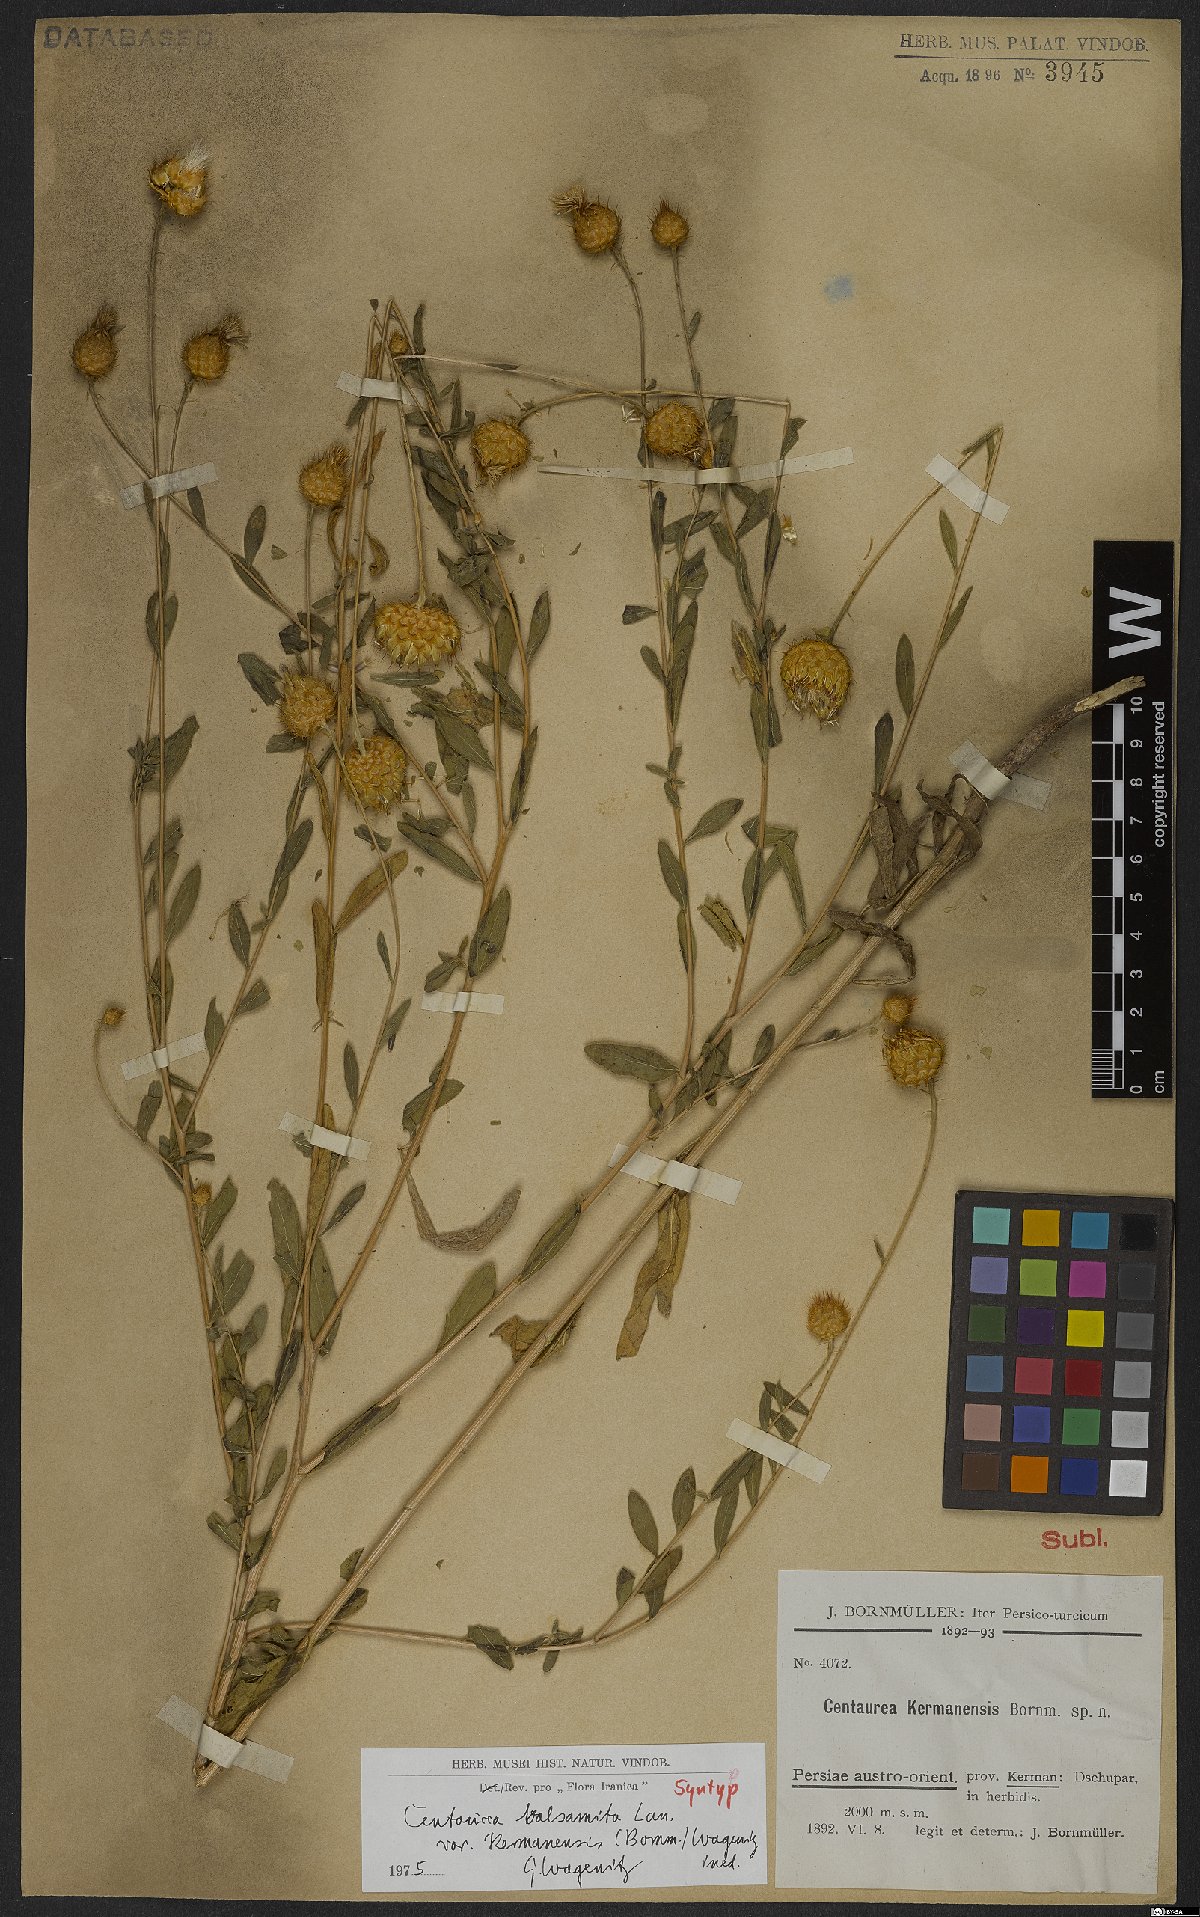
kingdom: Plantae
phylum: Tracheophyta
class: Magnoliopsida
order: Asterales
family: Asteraceae
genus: Stizolophus
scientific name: Stizolophus kermanensis
